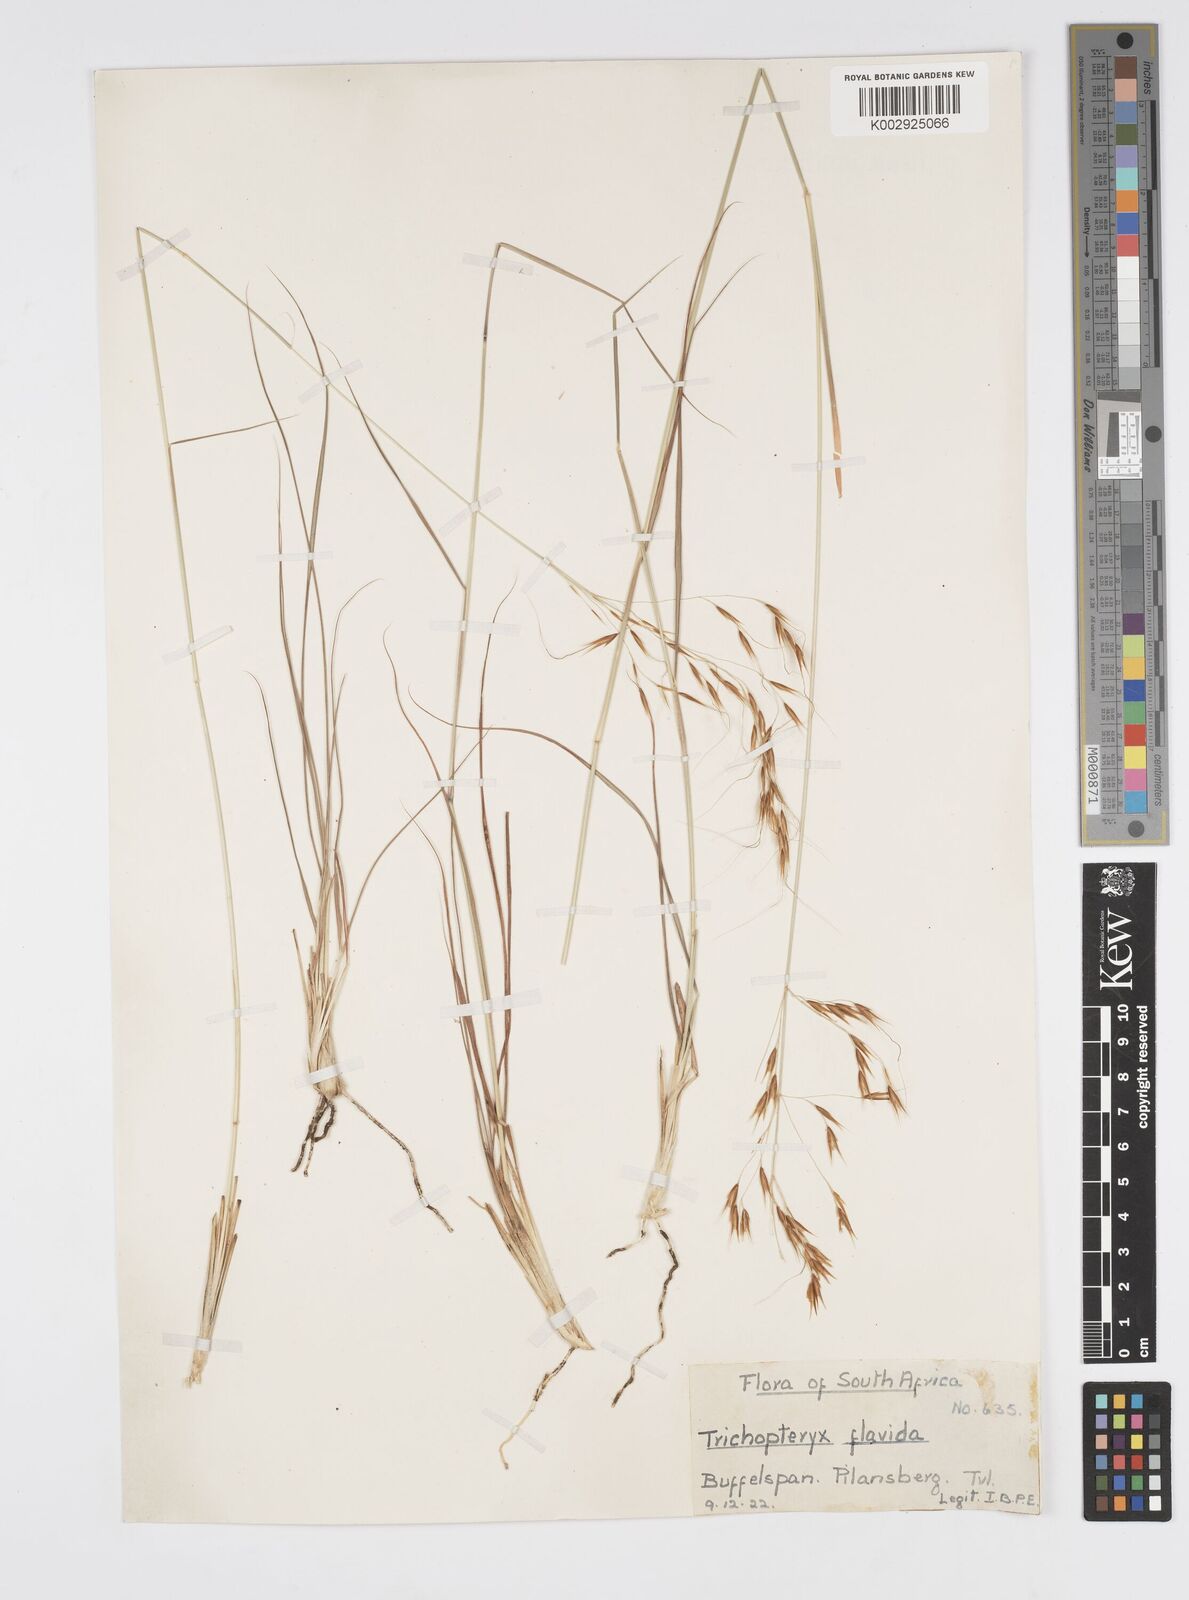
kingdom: Plantae
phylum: Tracheophyta
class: Liliopsida
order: Poales
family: Poaceae
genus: Loudetia
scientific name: Loudetia flavida
